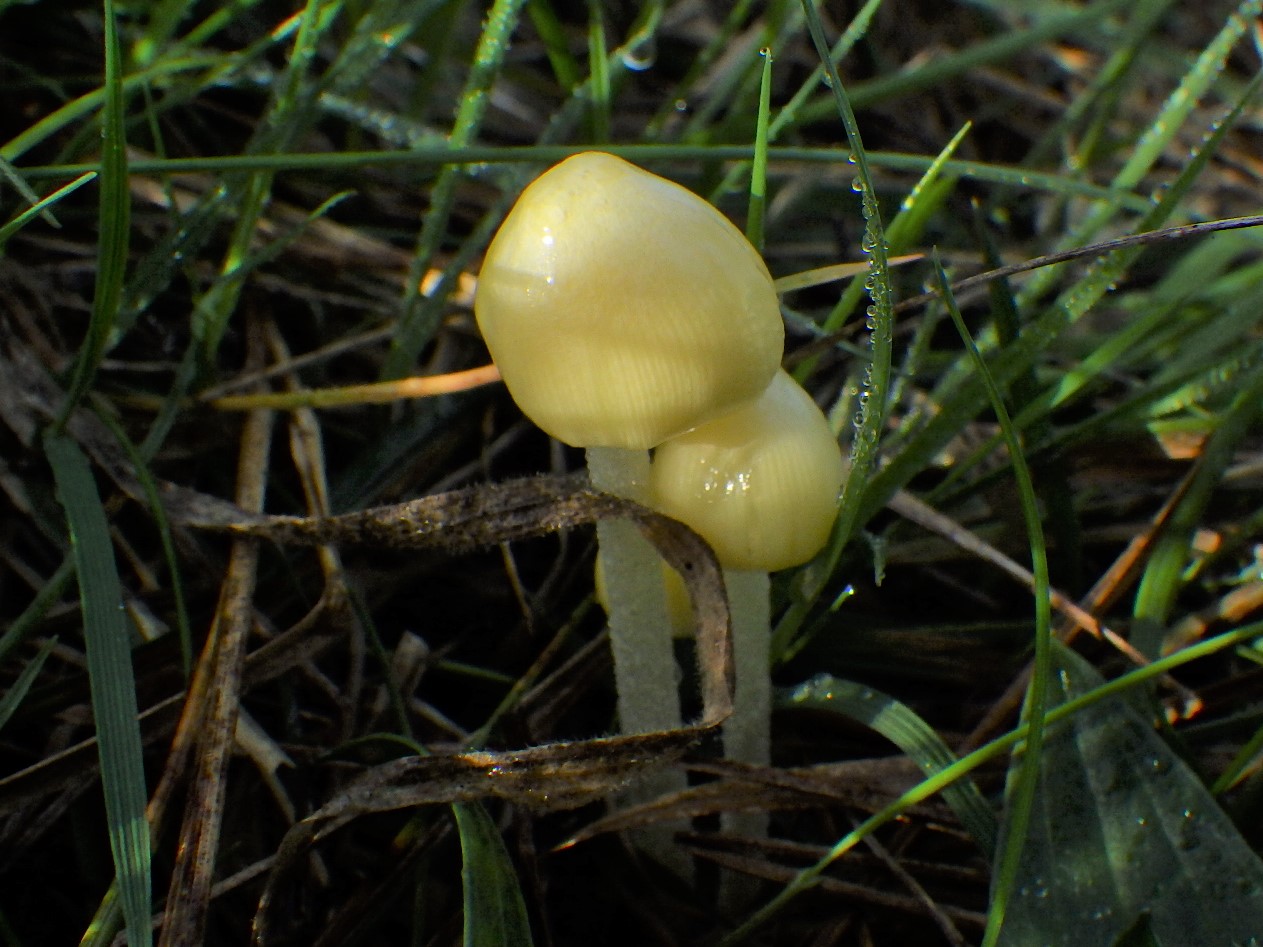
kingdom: Fungi
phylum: Basidiomycota
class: Agaricomycetes
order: Agaricales
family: Bolbitiaceae
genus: Bolbitius
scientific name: Bolbitius titubans
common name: almindelig gulhat
